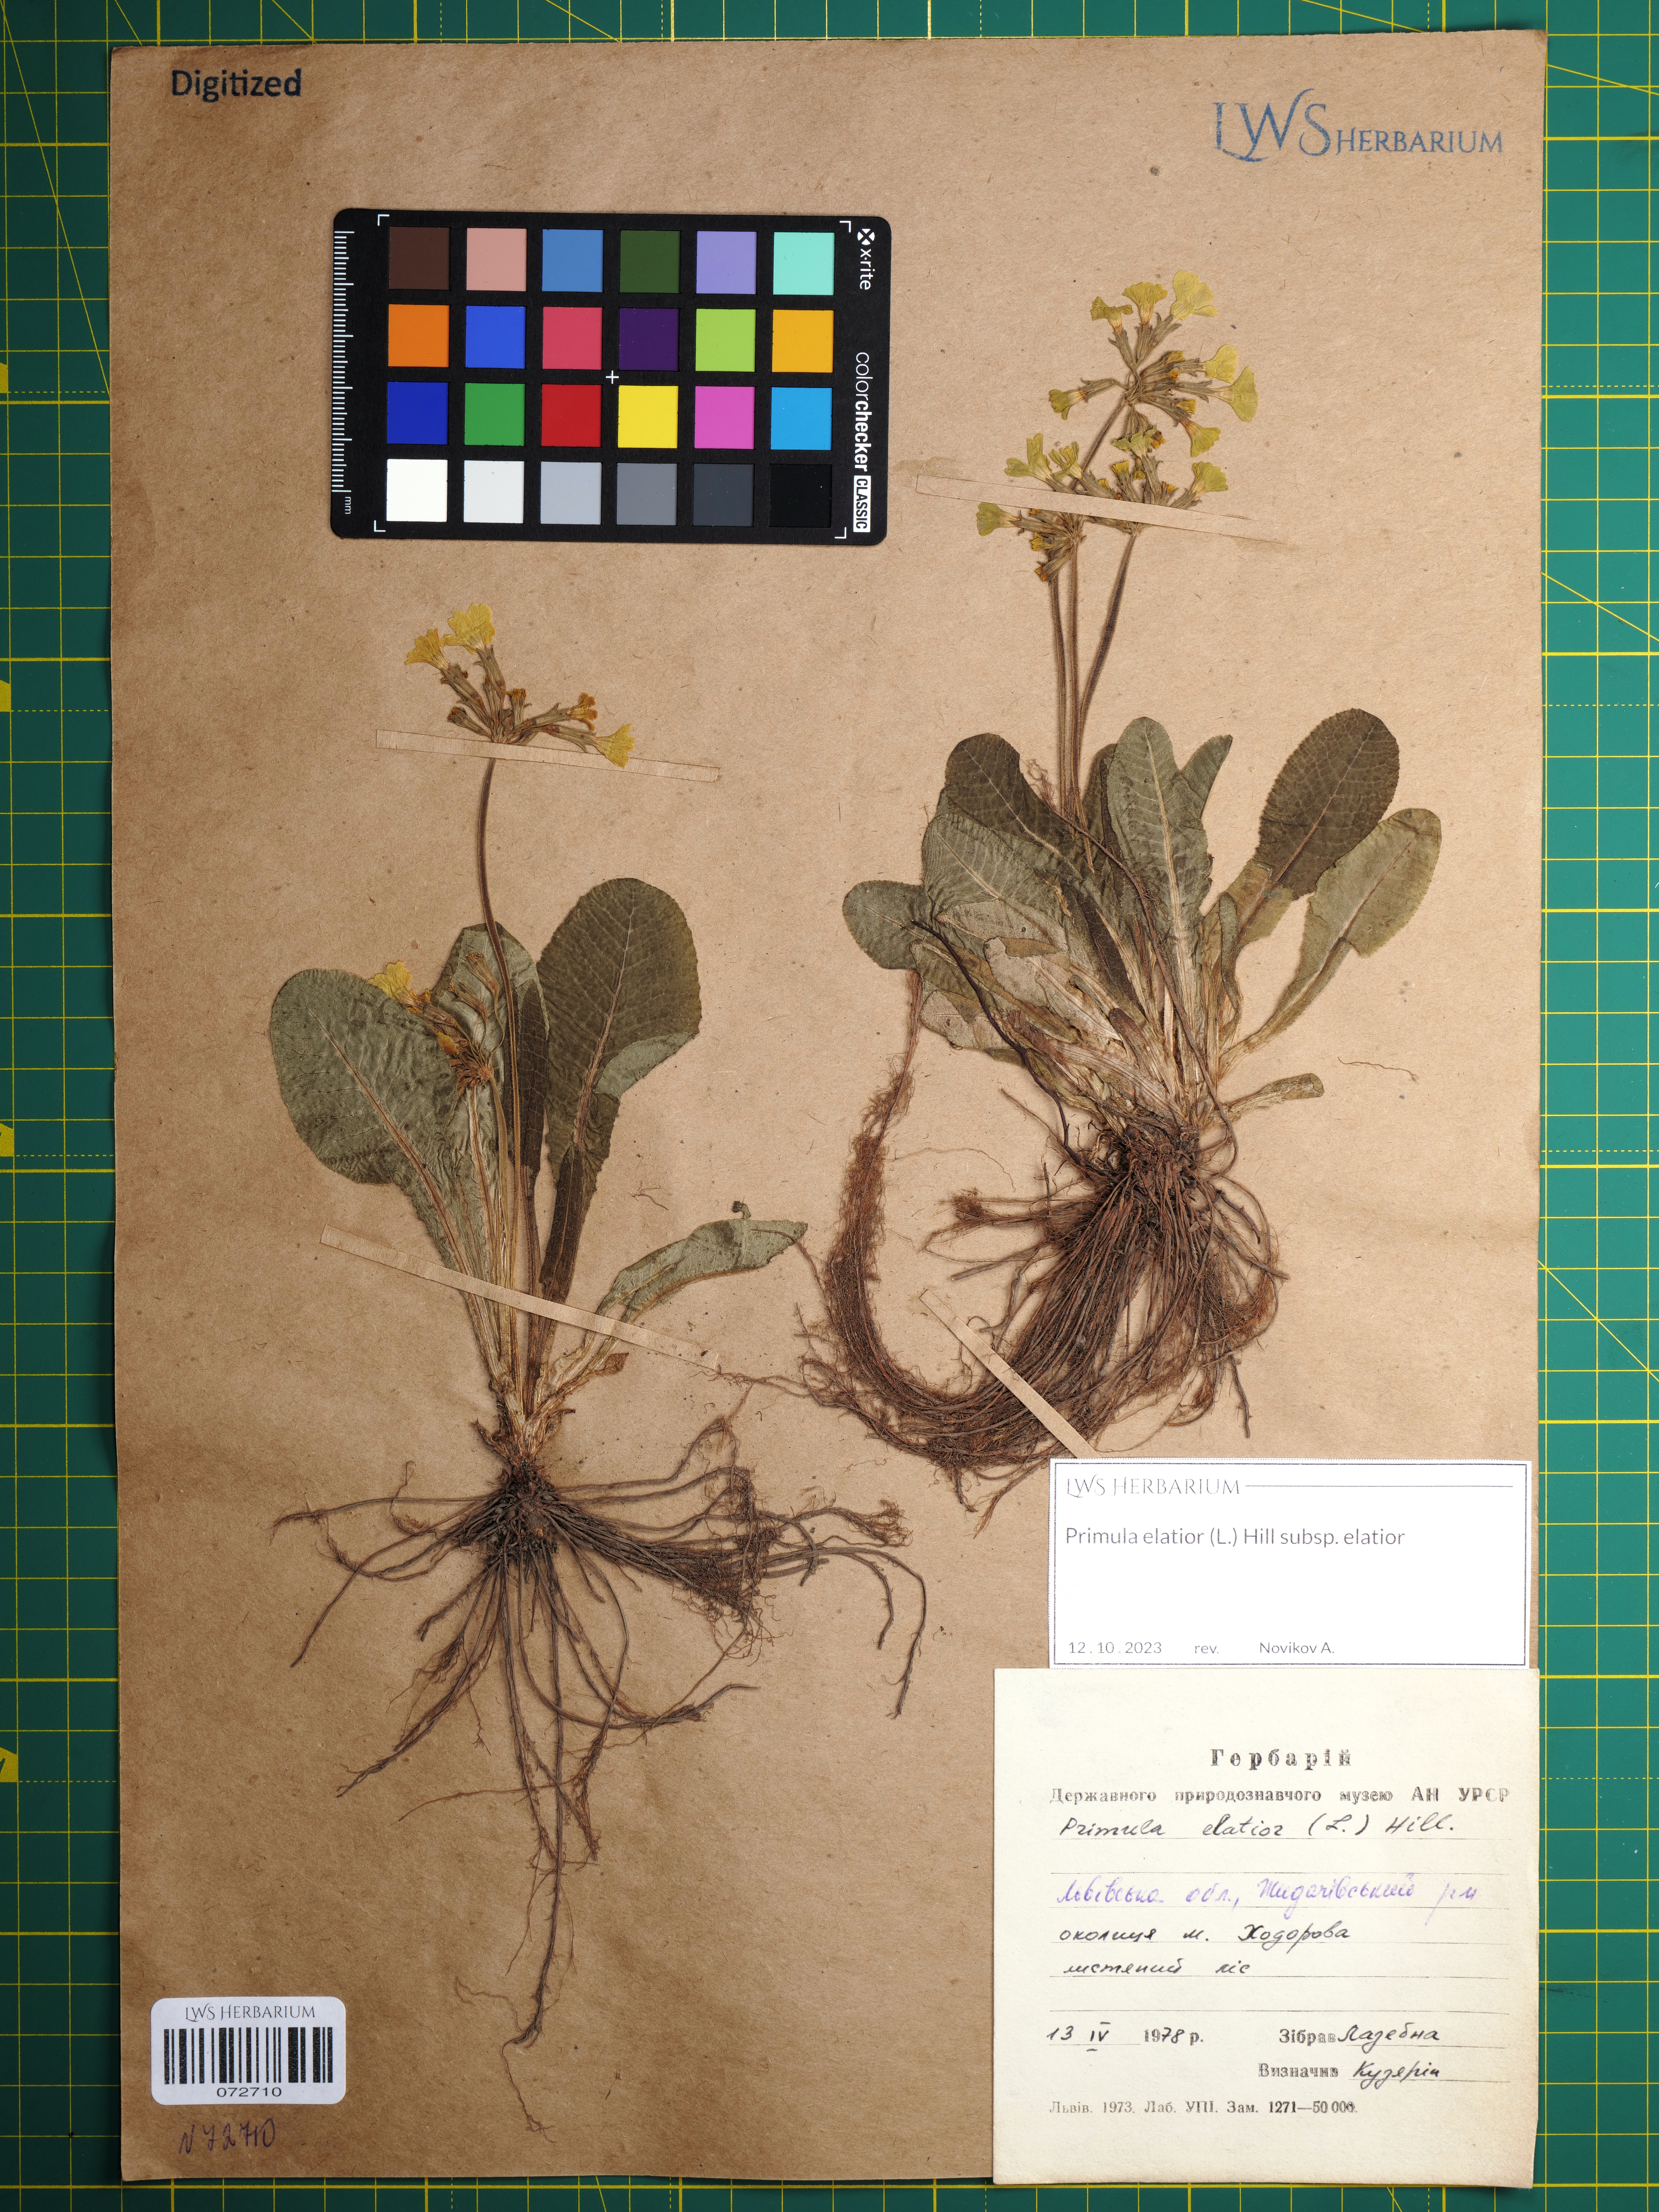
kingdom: Plantae
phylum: Tracheophyta
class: Magnoliopsida
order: Ericales
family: Primulaceae
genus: Primula
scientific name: Primula elatior
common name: Oxlip
